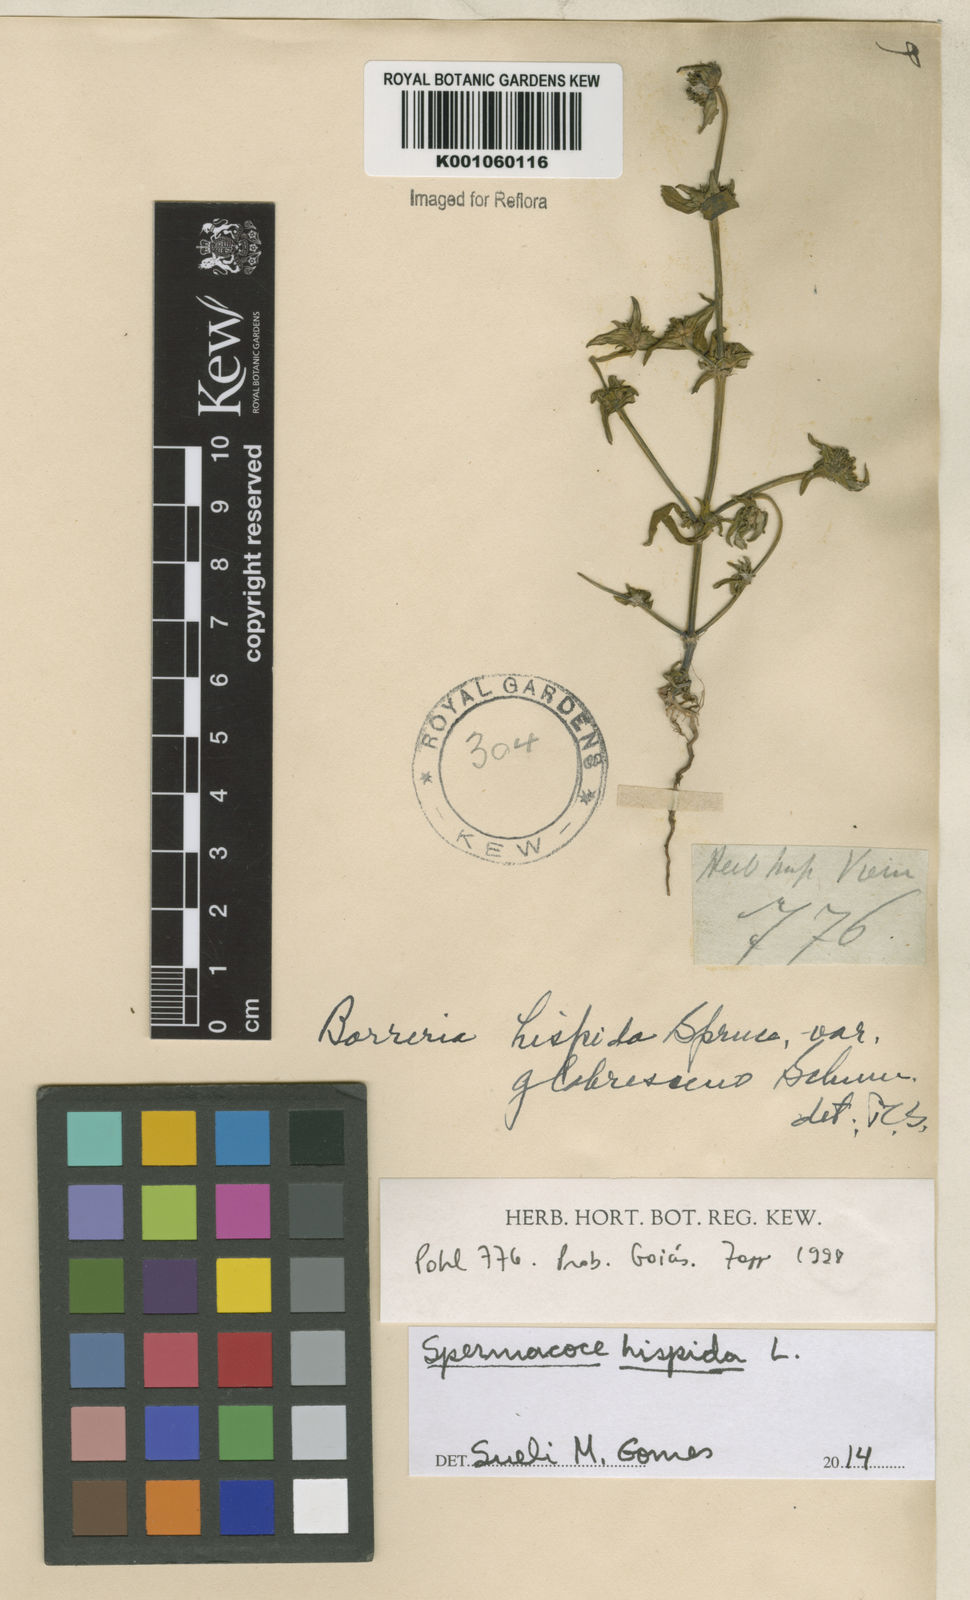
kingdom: Plantae
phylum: Tracheophyta
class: Magnoliopsida
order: Gentianales
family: Rubiaceae
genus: Spermacoce
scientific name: Spermacoce hispida
